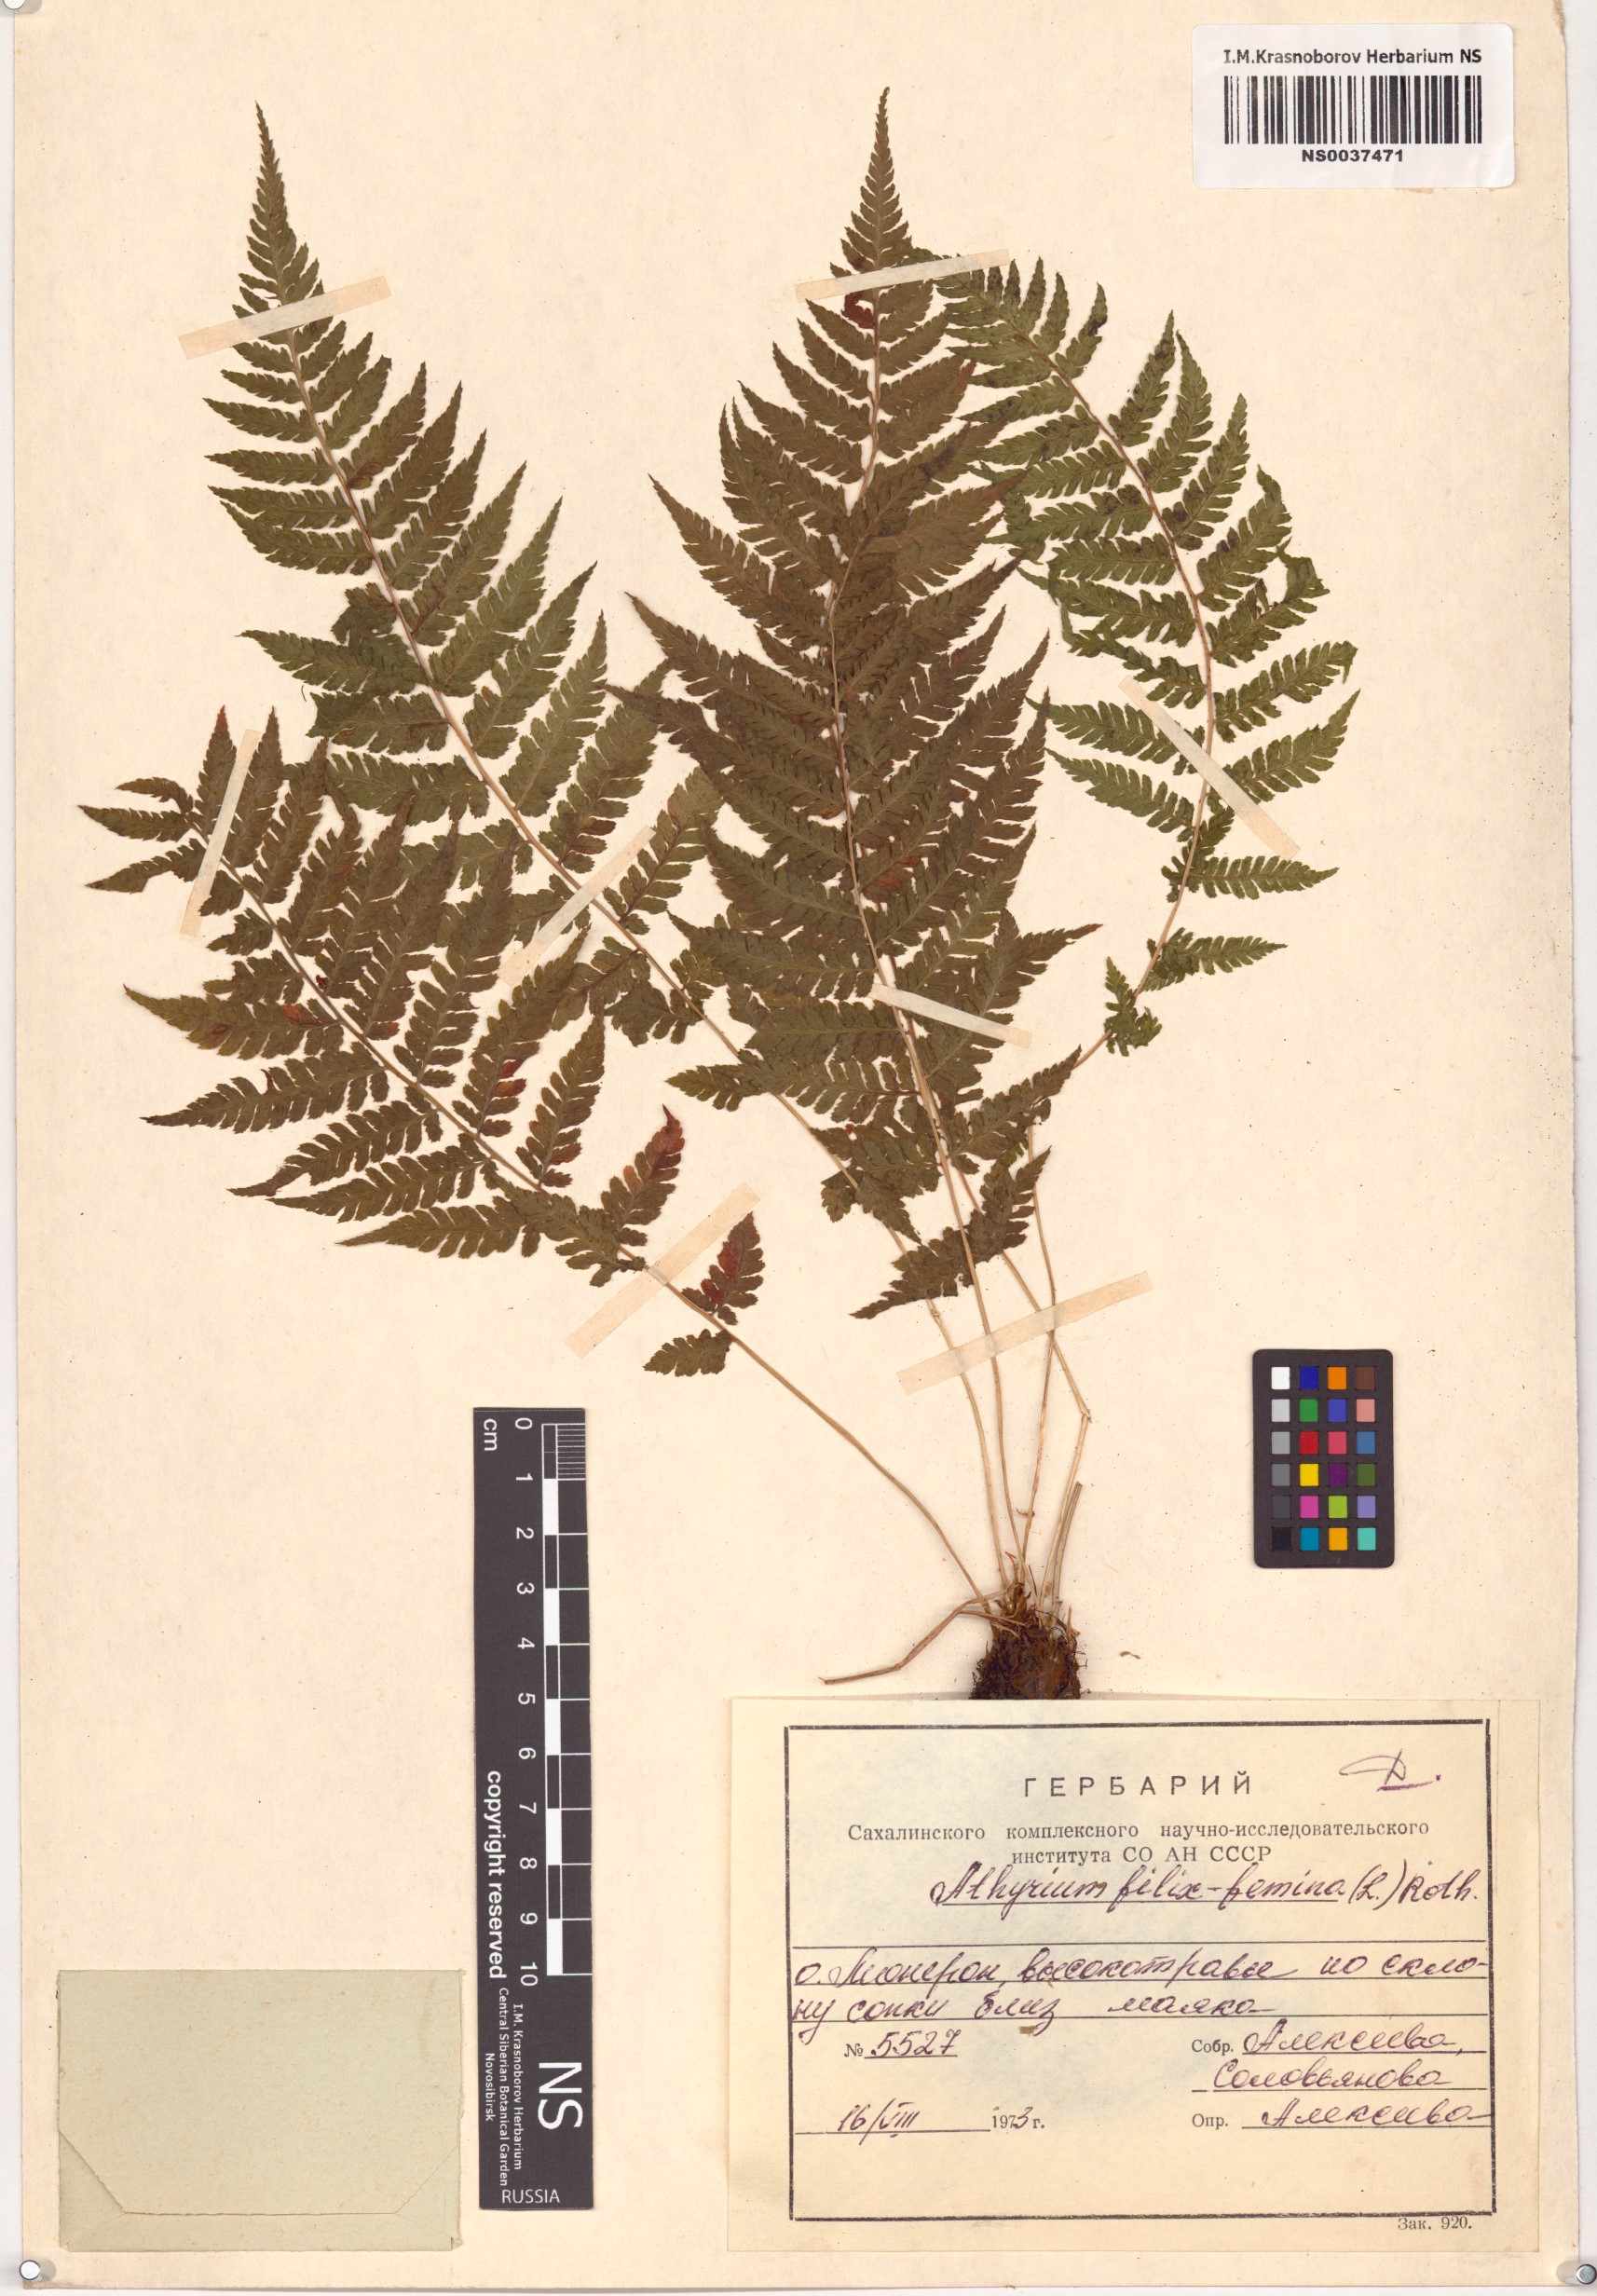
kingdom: Plantae
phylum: Tracheophyta
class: Polypodiopsida
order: Polypodiales
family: Athyriaceae
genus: Athyrium
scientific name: Athyrium filix-femina
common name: Lady fern
